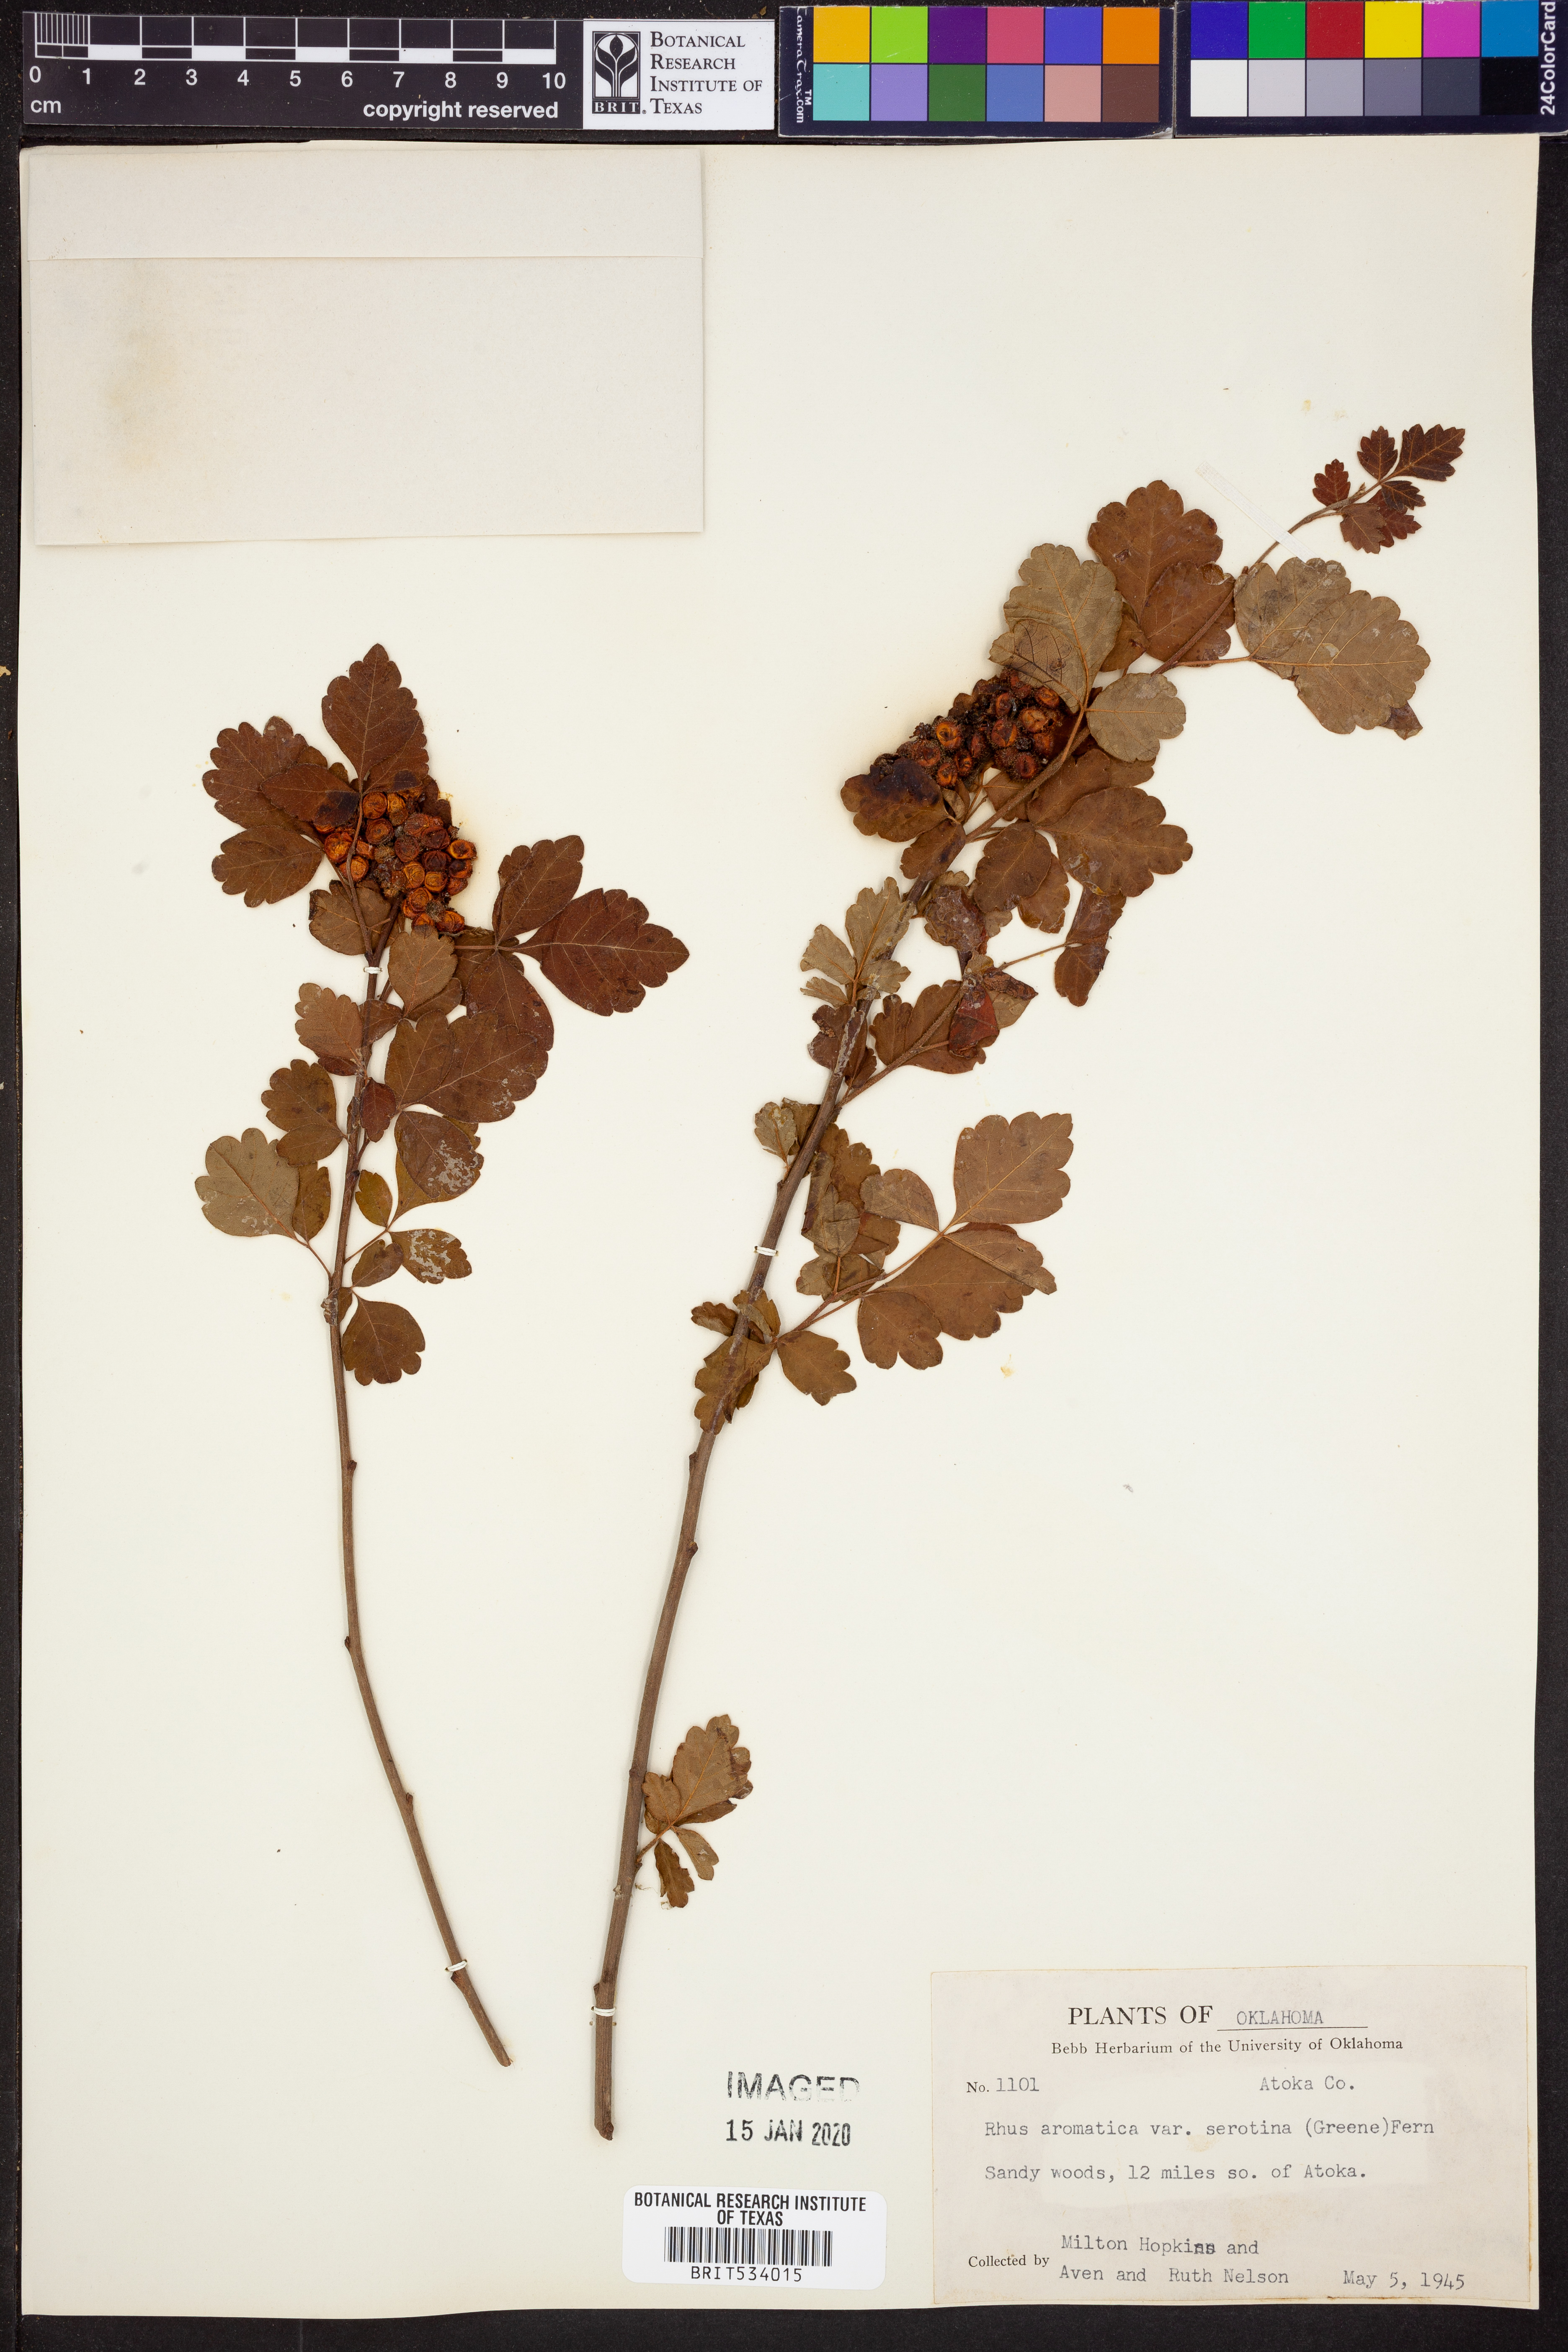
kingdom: Plantae
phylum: Tracheophyta
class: Magnoliopsida
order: Sapindales
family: Anacardiaceae
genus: Rhus
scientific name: Rhus aromatica
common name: Aromatic sumac
